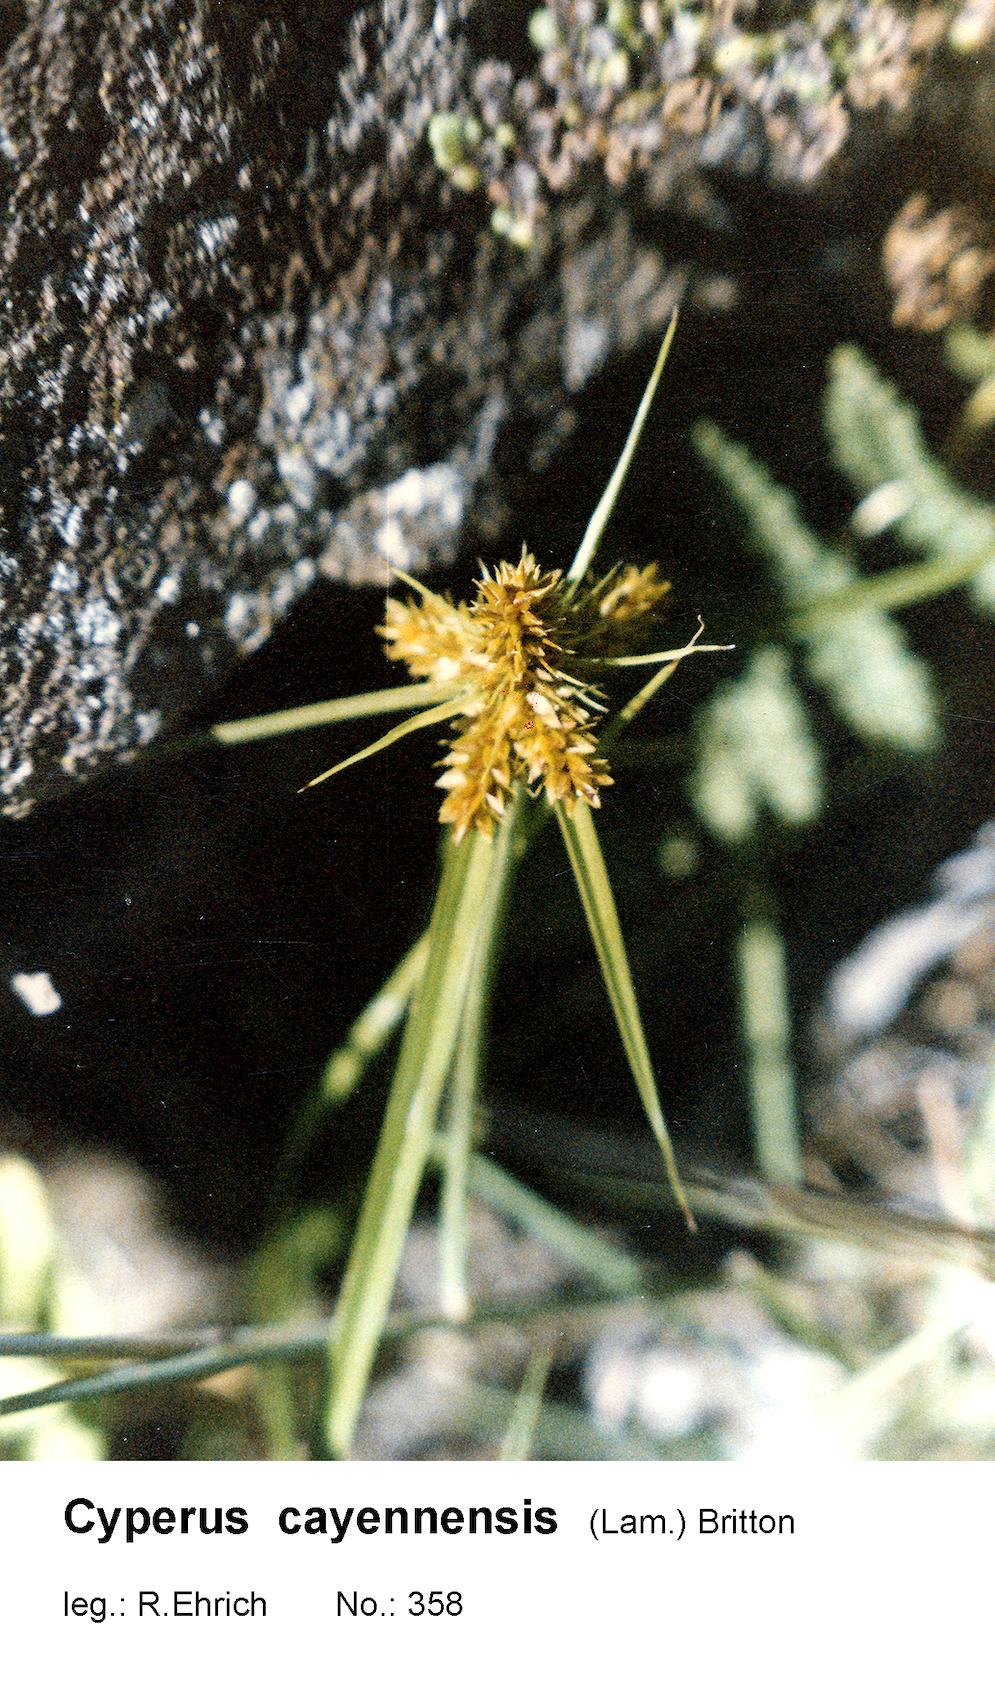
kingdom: Plantae
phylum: Tracheophyta
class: Liliopsida
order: Poales
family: Cyperaceae
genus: Cyperus
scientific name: Cyperus aggregatus
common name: Inflatedscale flatsedge
